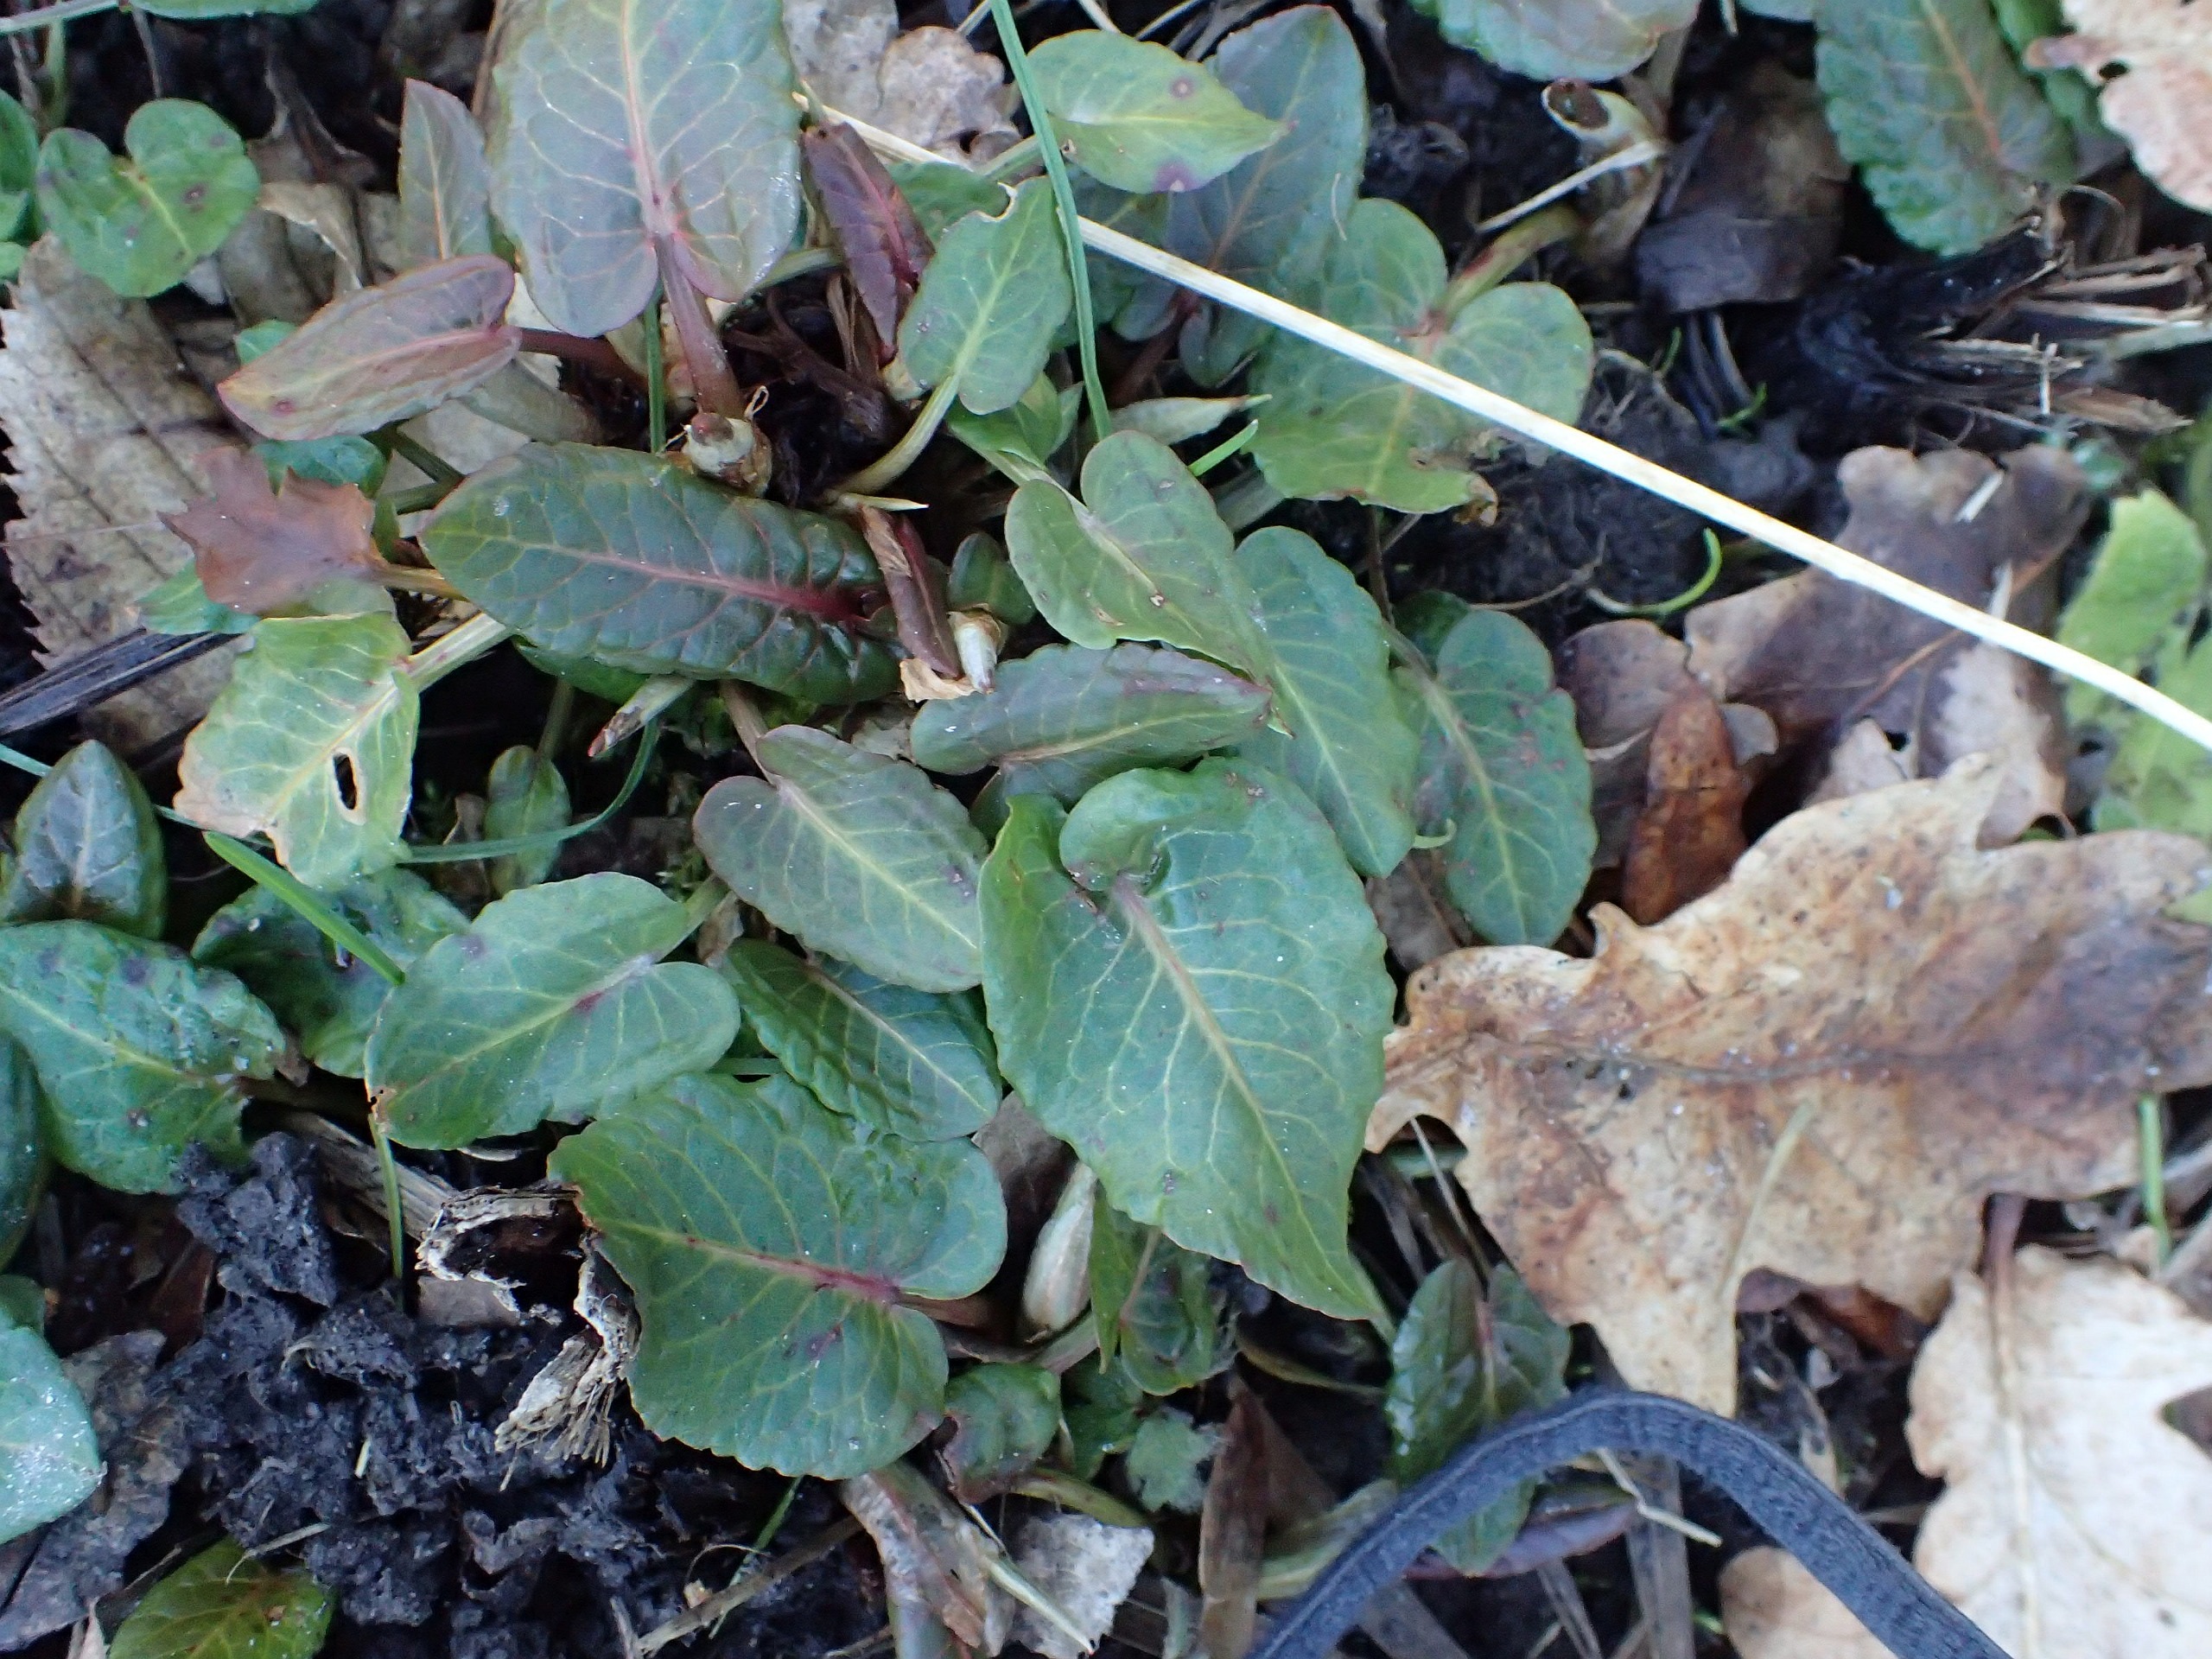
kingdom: Plantae
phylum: Tracheophyta
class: Magnoliopsida
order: Caryophyllales
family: Polygonaceae
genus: Rumex
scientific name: Rumex obtusifolius
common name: Butbladet skræppe
